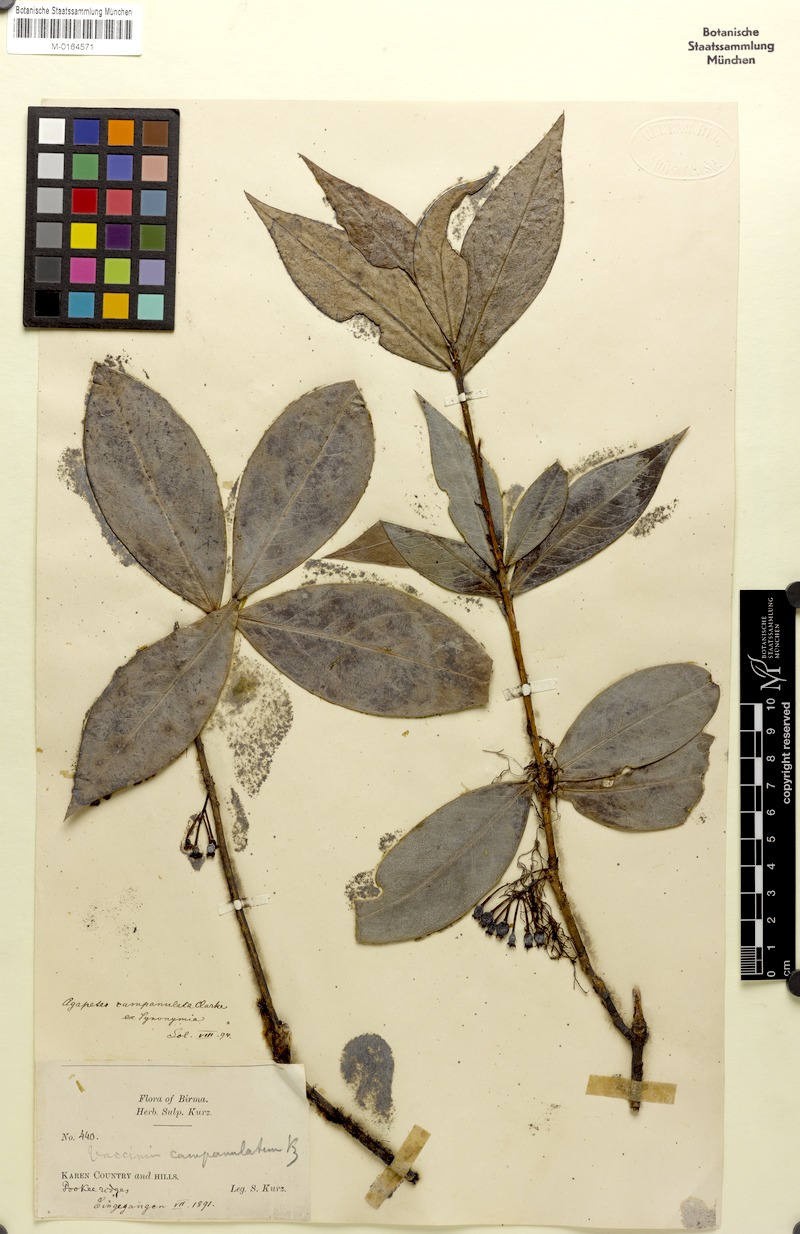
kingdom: Plantae
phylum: Tracheophyta
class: Magnoliopsida
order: Ericales
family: Ericaceae
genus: Agapetes
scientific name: Agapetes campanulata
